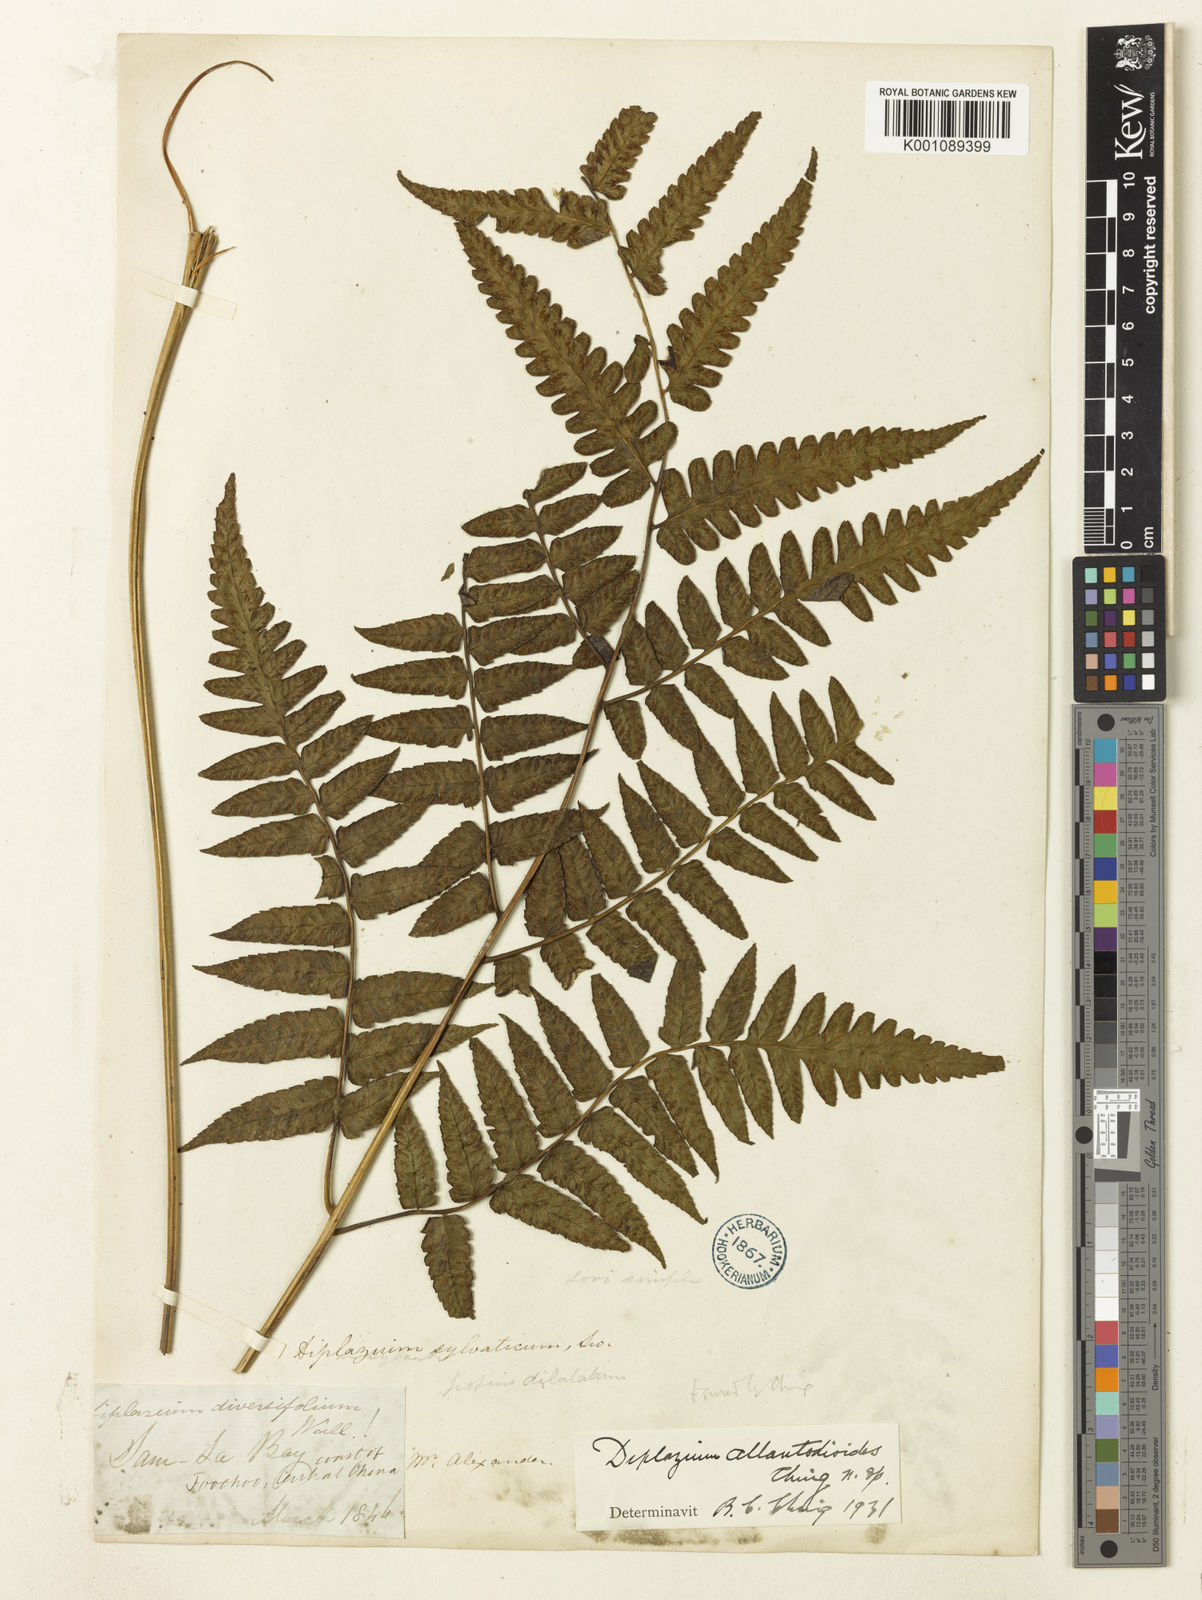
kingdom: Plantae
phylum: Tracheophyta
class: Polypodiopsida
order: Polypodiales
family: Athyriaceae
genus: Diplazium
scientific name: Diplazium virescens
